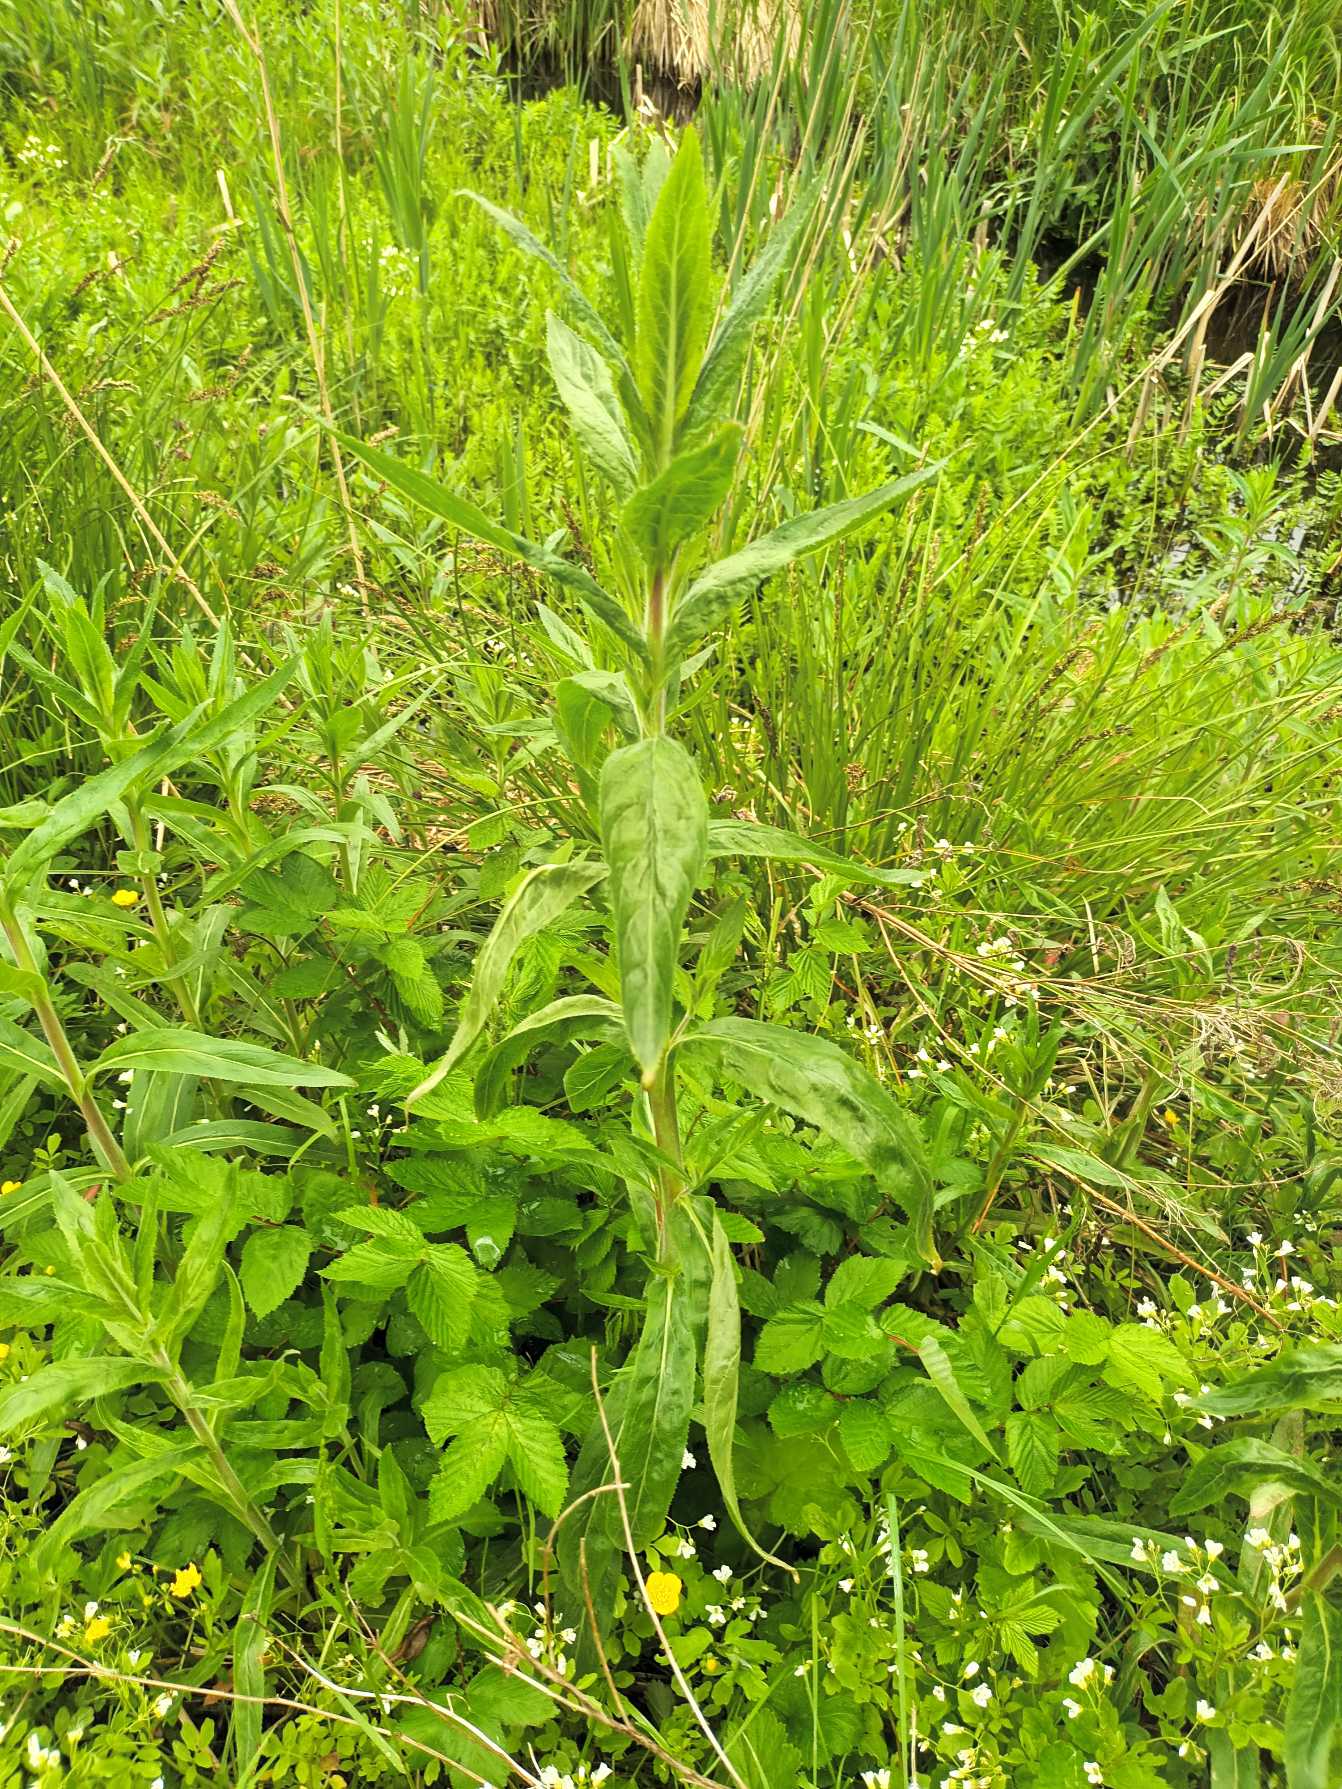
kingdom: Plantae
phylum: Tracheophyta
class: Magnoliopsida
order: Myrtales
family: Onagraceae
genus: Epilobium
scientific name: Epilobium hirsutum
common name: Lådden dueurt
